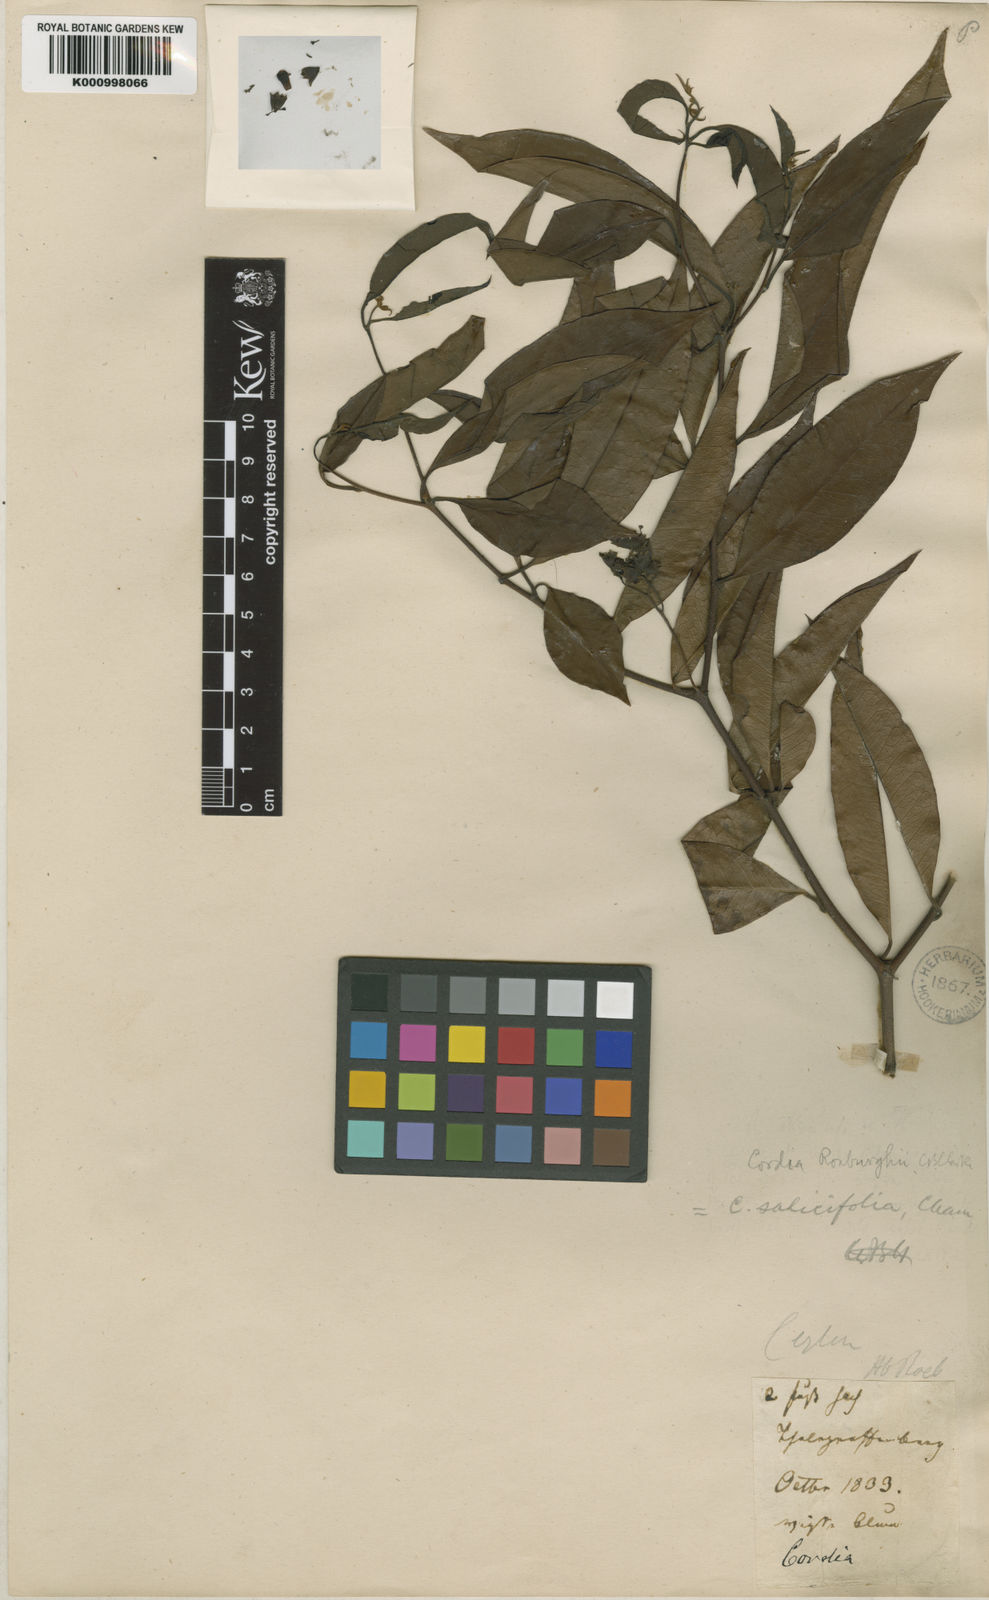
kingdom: Plantae
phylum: Tracheophyta
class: Magnoliopsida
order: Boraginales
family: Cordiaceae
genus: Cordia
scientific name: Cordia roxburghii
